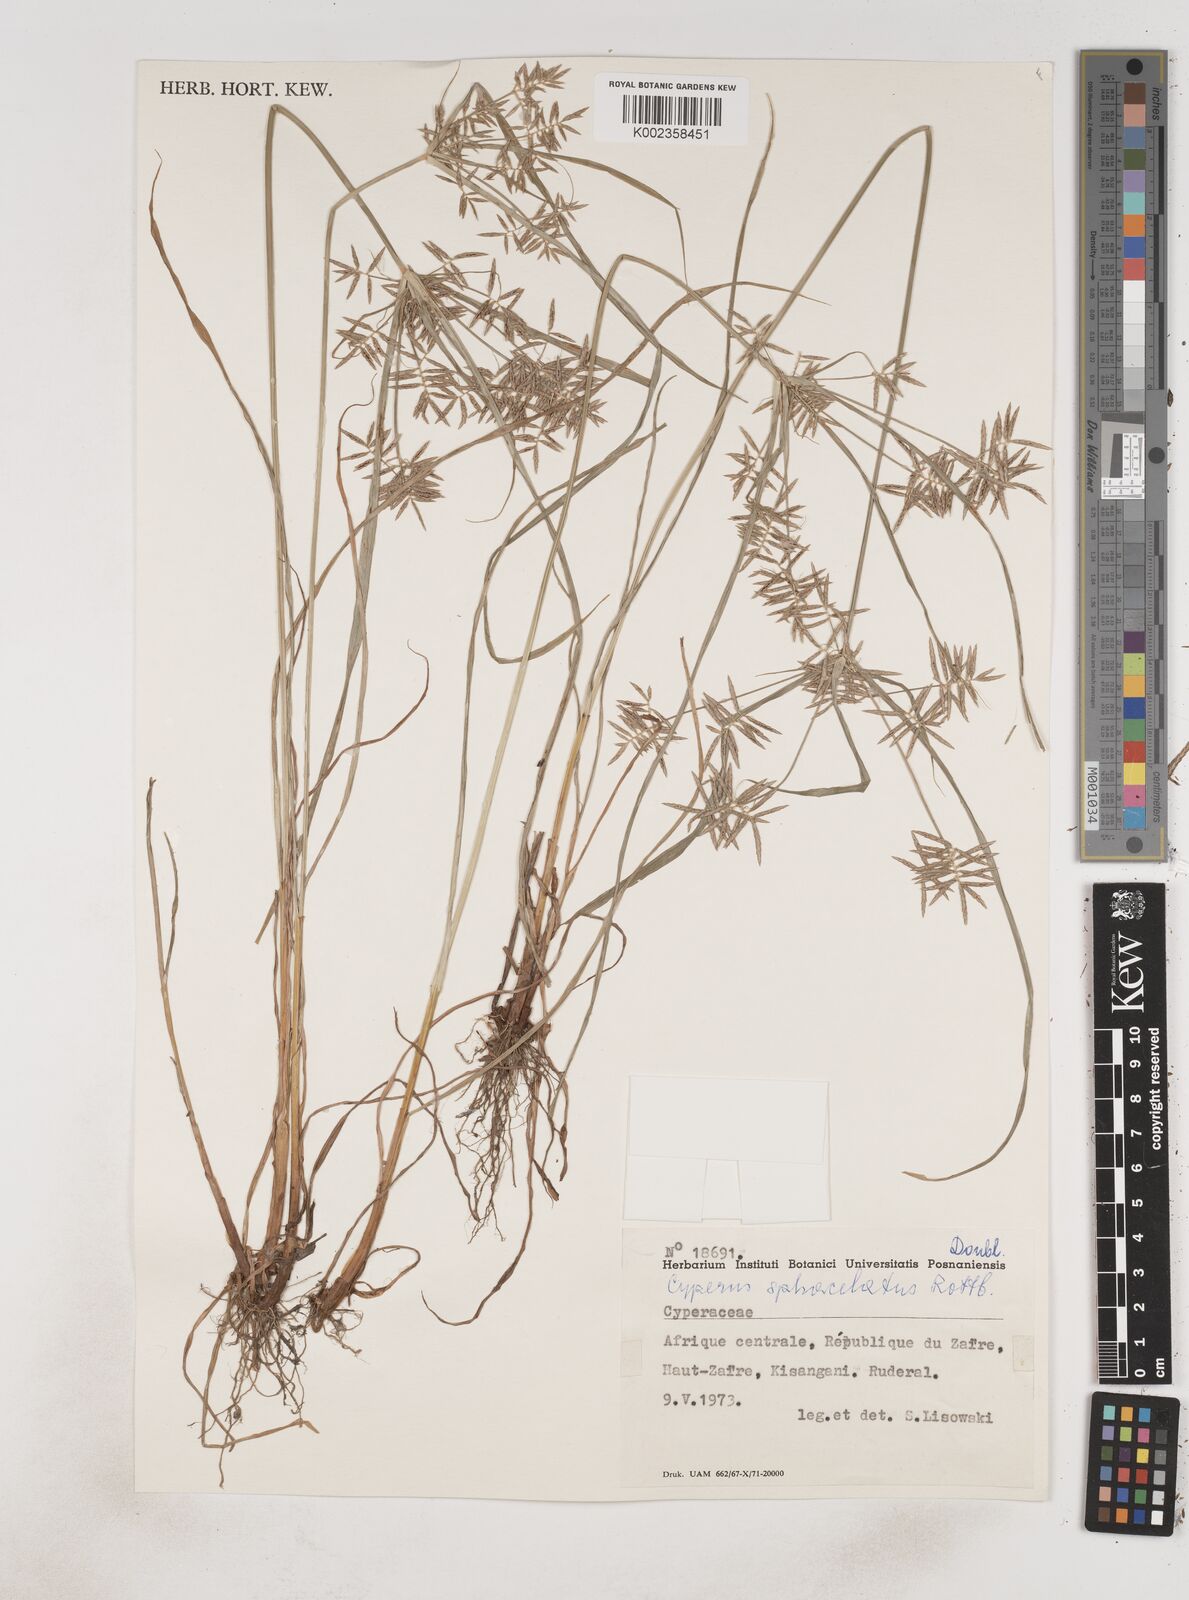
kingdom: Plantae
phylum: Tracheophyta
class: Liliopsida
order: Poales
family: Cyperaceae
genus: Cyperus
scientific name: Cyperus sphacelatus
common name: Roadside flatsedge
